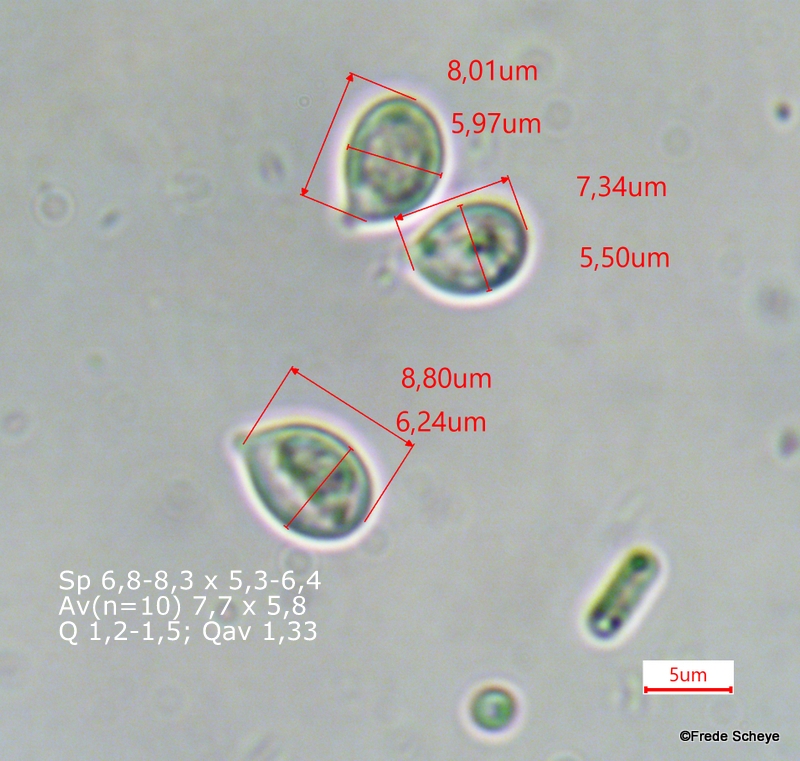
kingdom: Fungi
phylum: Basidiomycota
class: Agaricomycetes
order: Agaricales
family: Porotheleaceae
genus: Phloeomana
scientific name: Phloeomana hiemalis
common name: sen huesvamp
